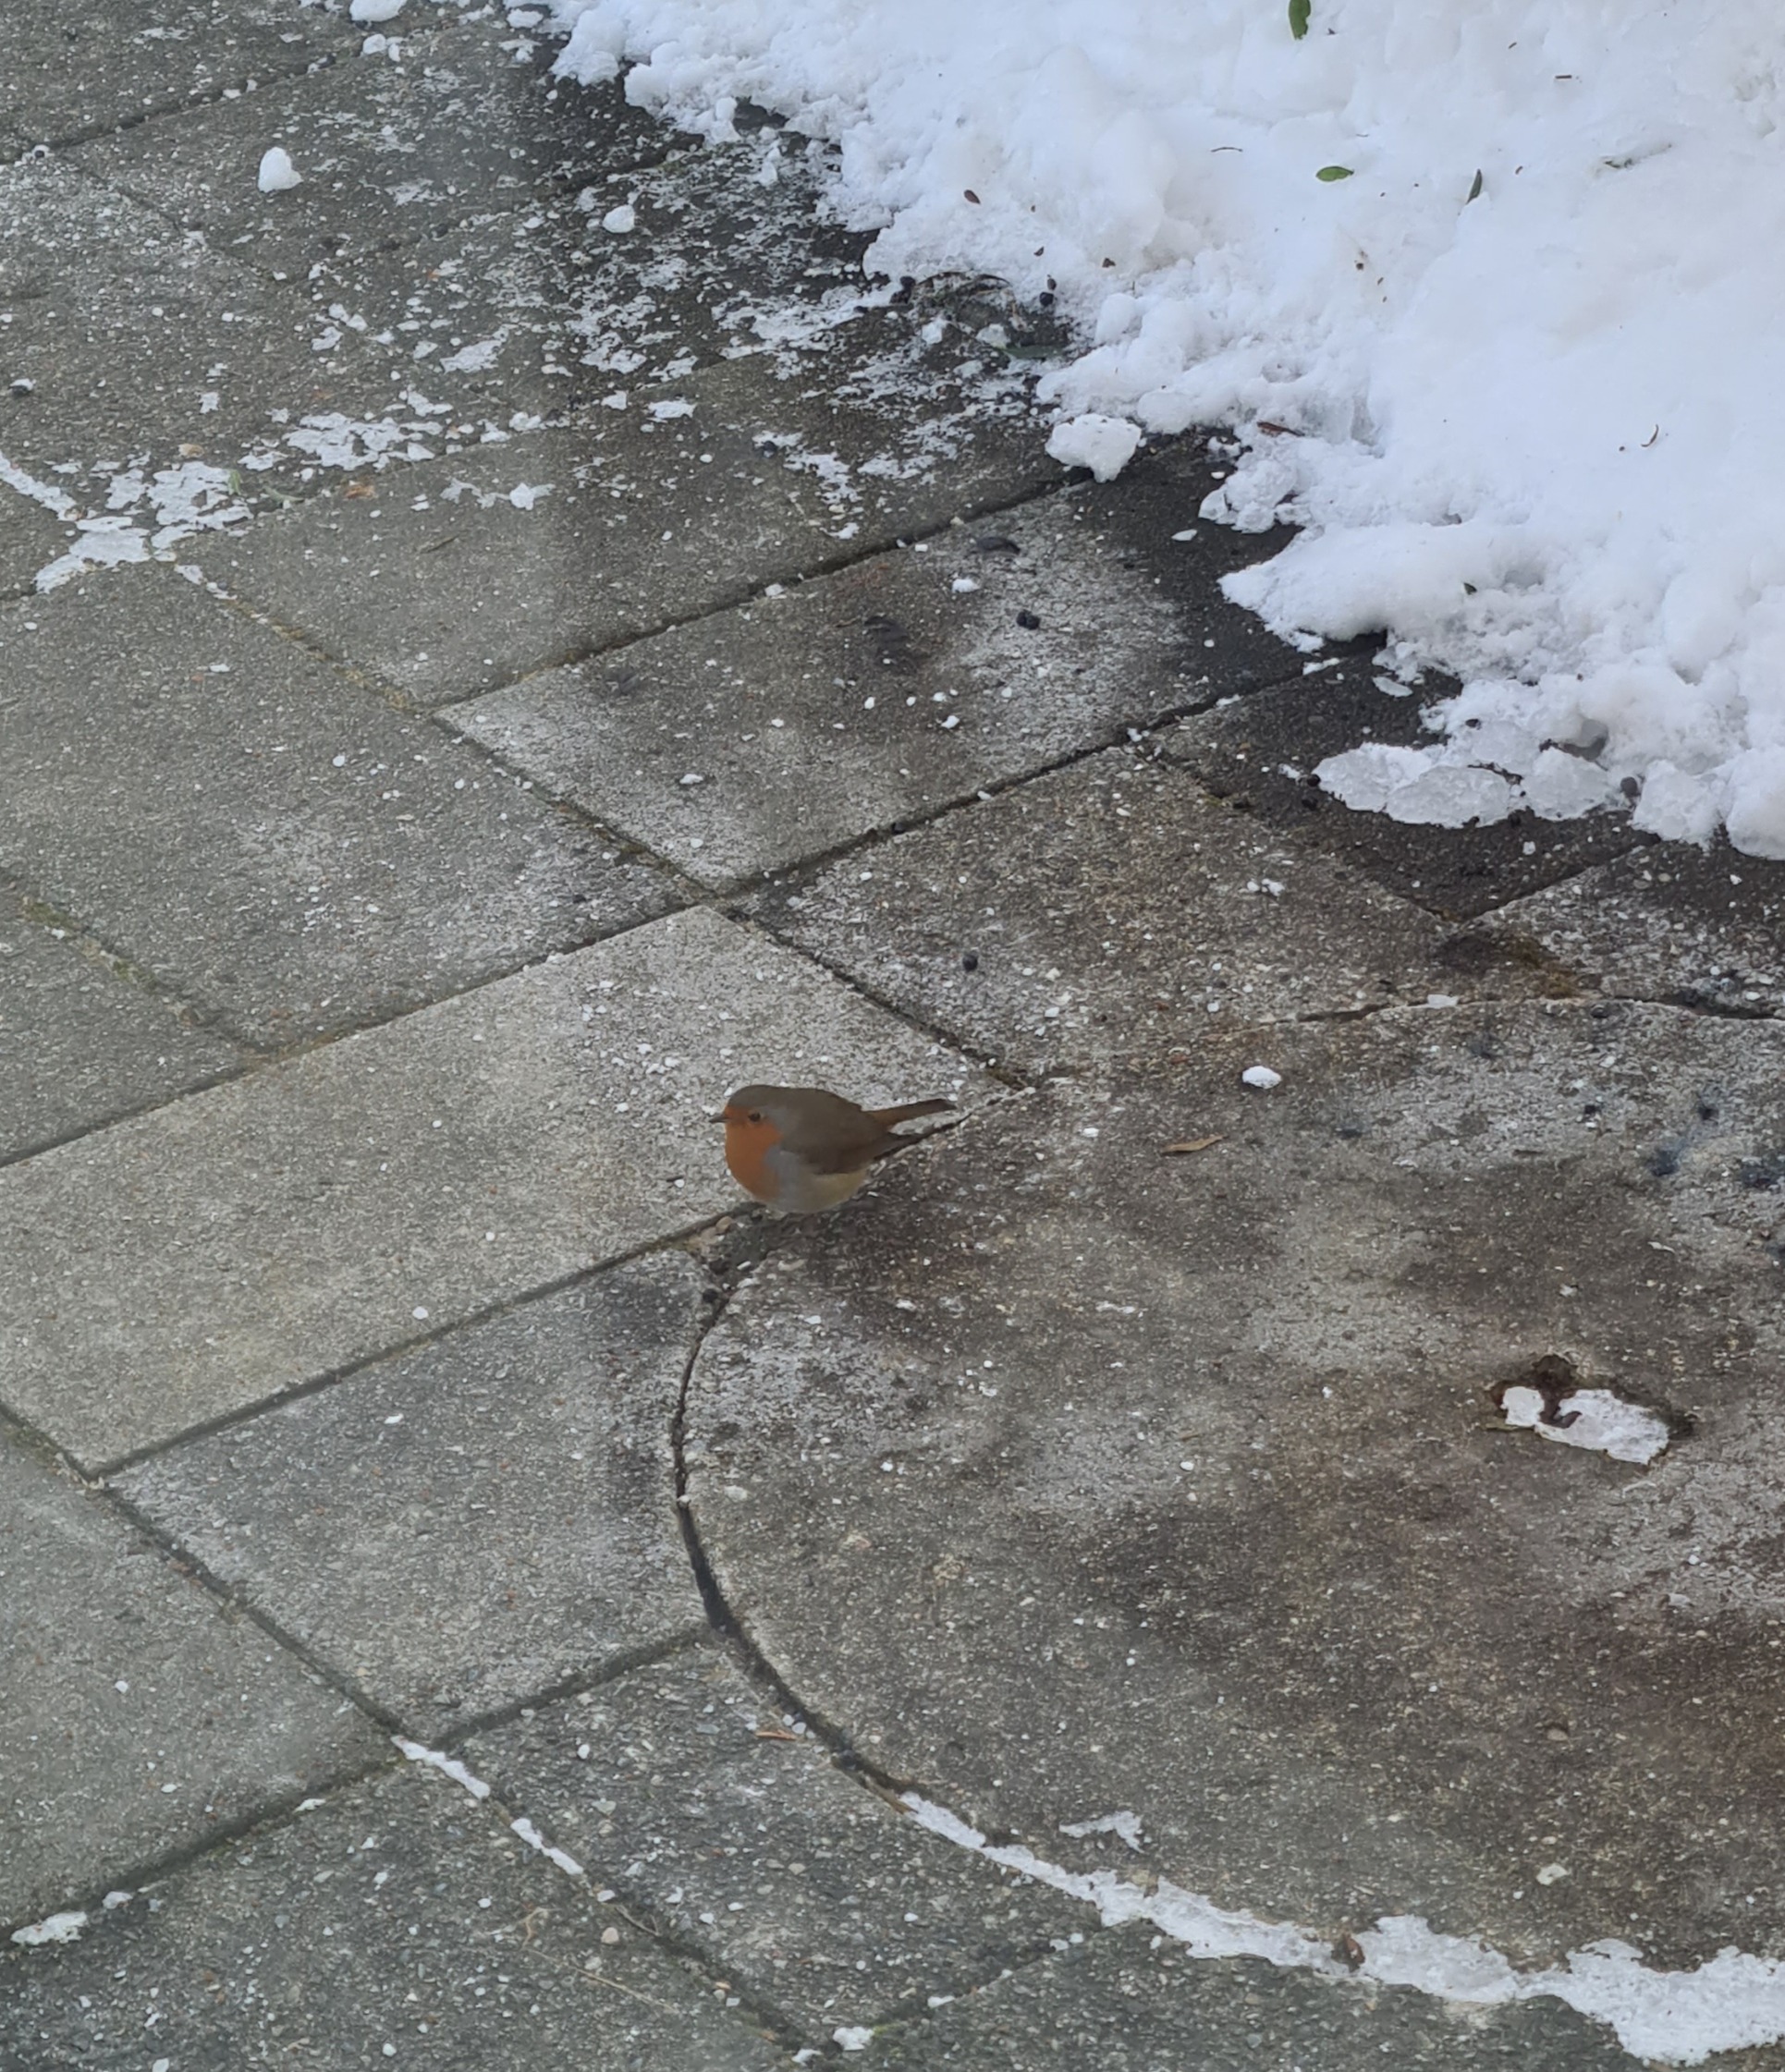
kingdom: Animalia
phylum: Chordata
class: Aves
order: Passeriformes
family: Muscicapidae
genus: Erithacus
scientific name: Erithacus rubecula
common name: Rødhals/rødkælk
